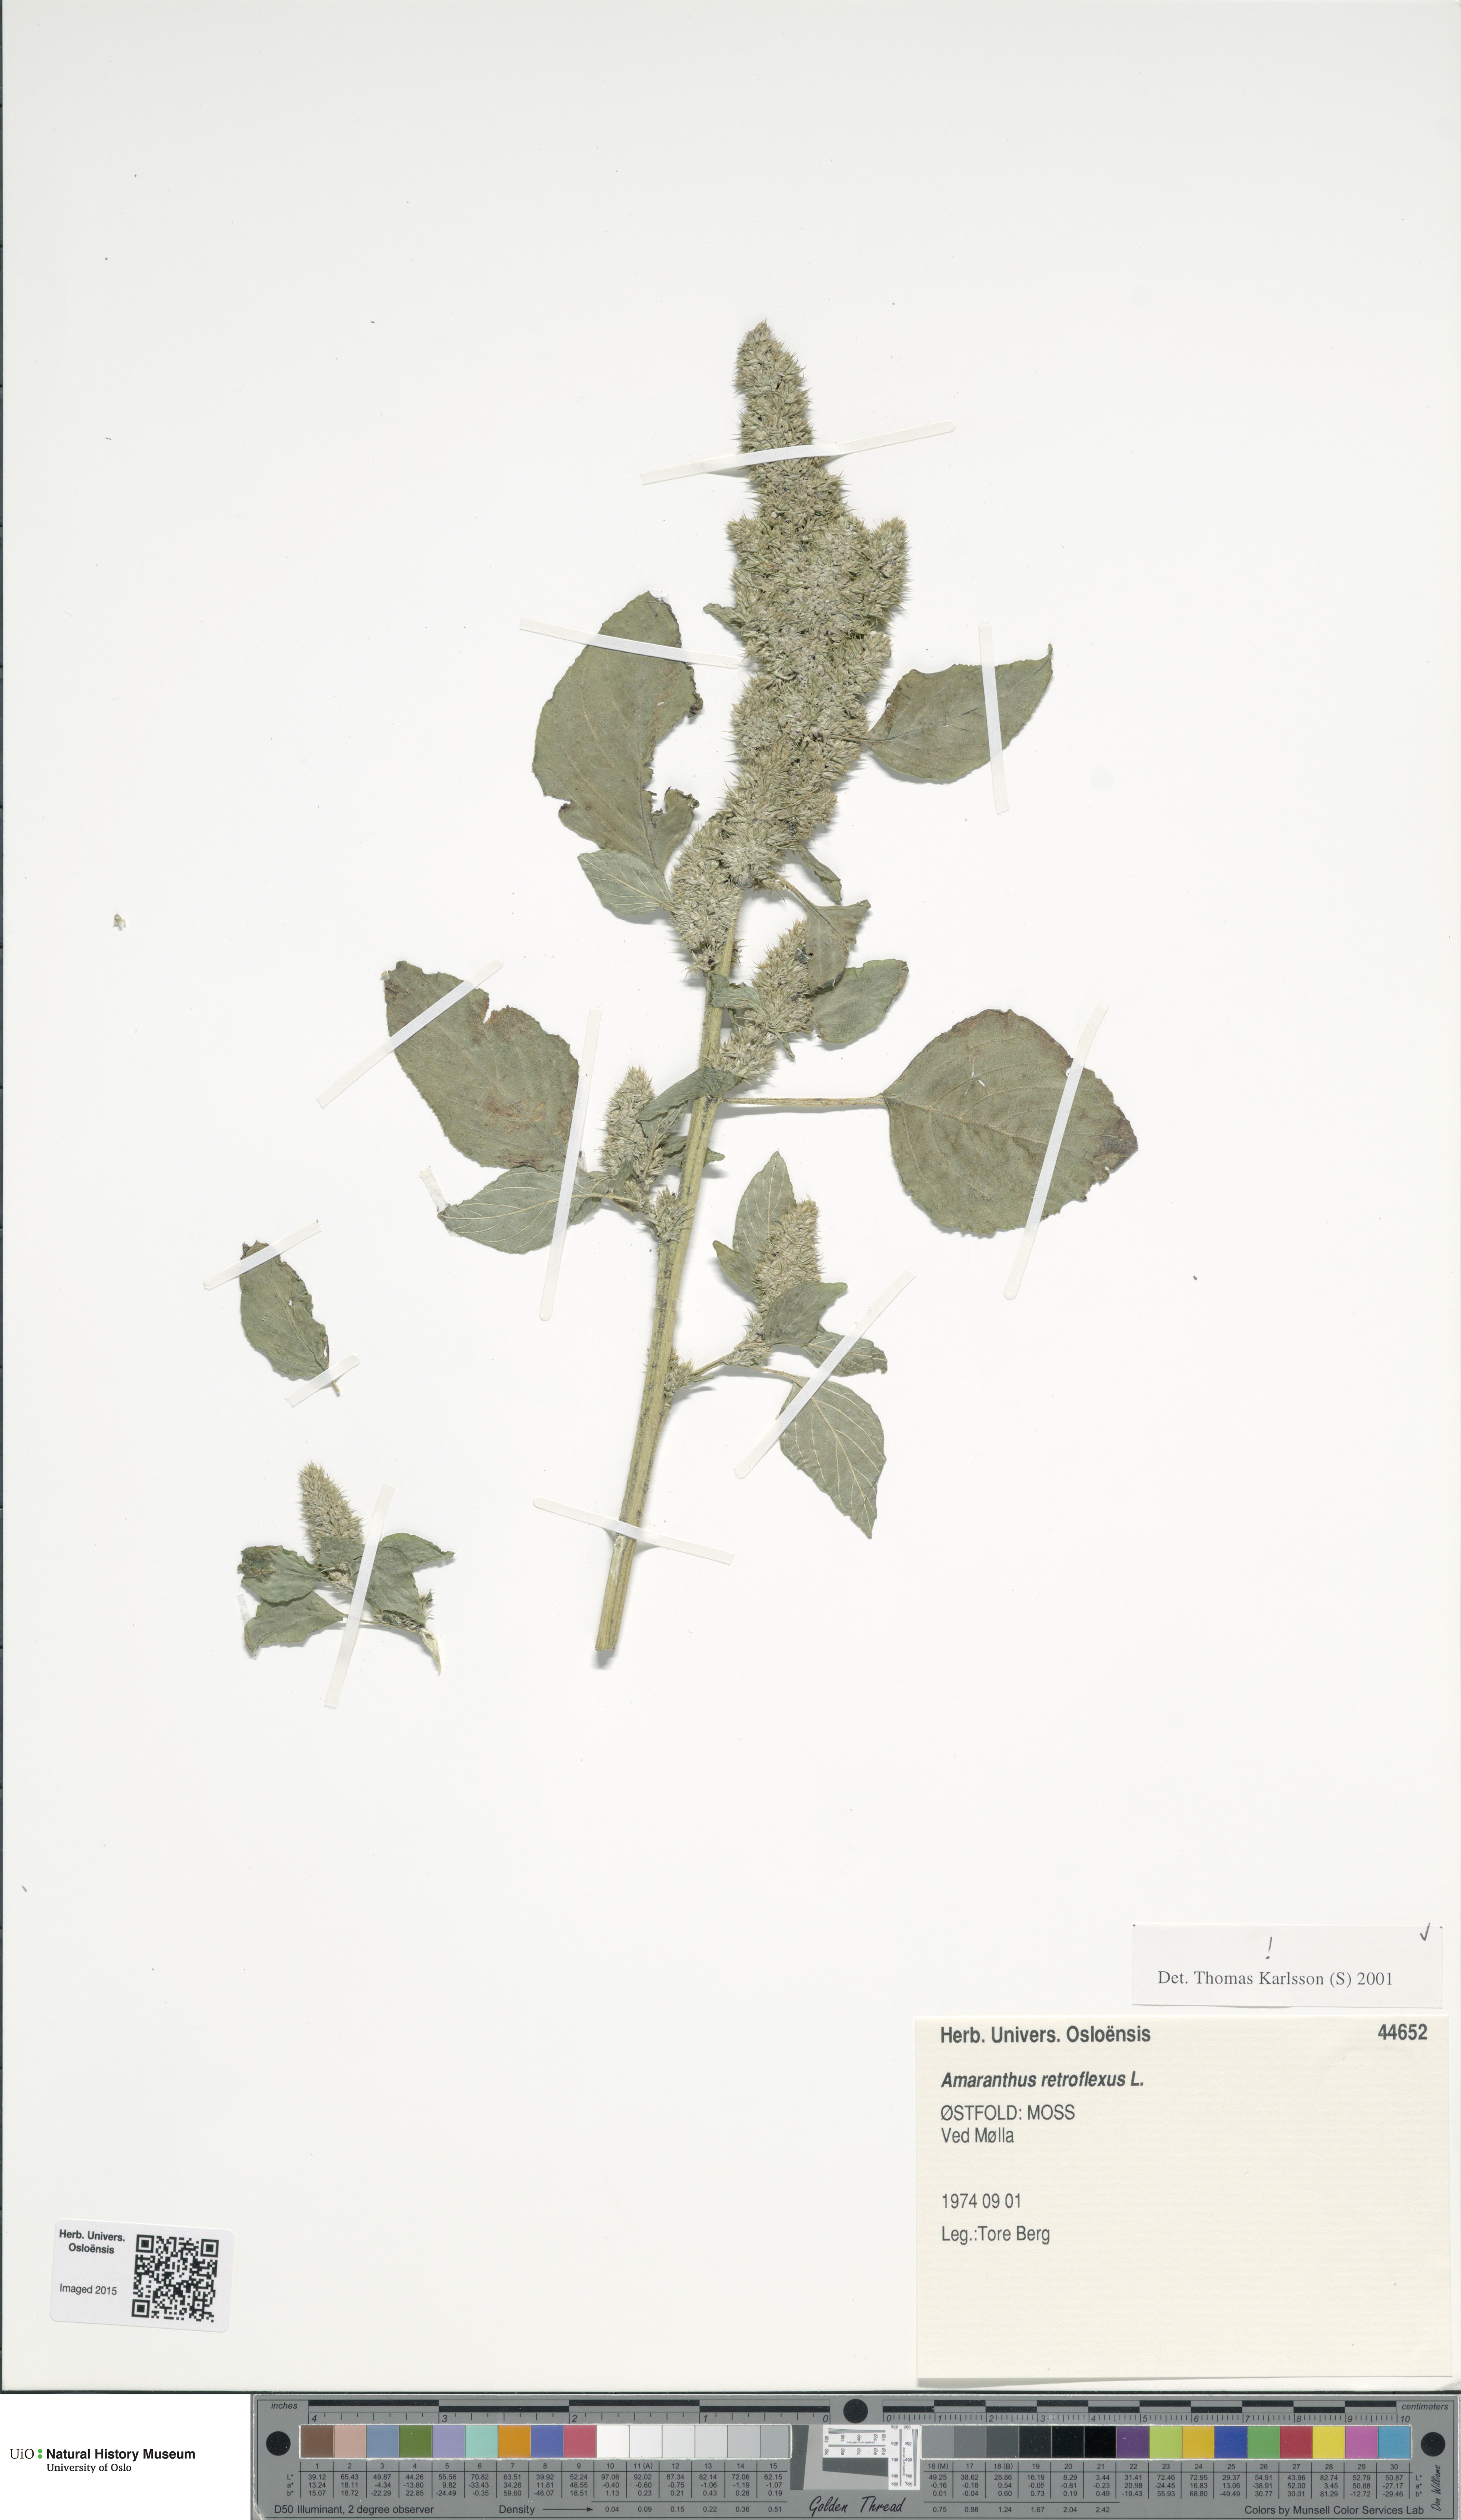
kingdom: Plantae
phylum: Tracheophyta
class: Magnoliopsida
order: Caryophyllales
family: Amaranthaceae
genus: Amaranthus
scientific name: Amaranthus retroflexus
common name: Redroot amaranth
